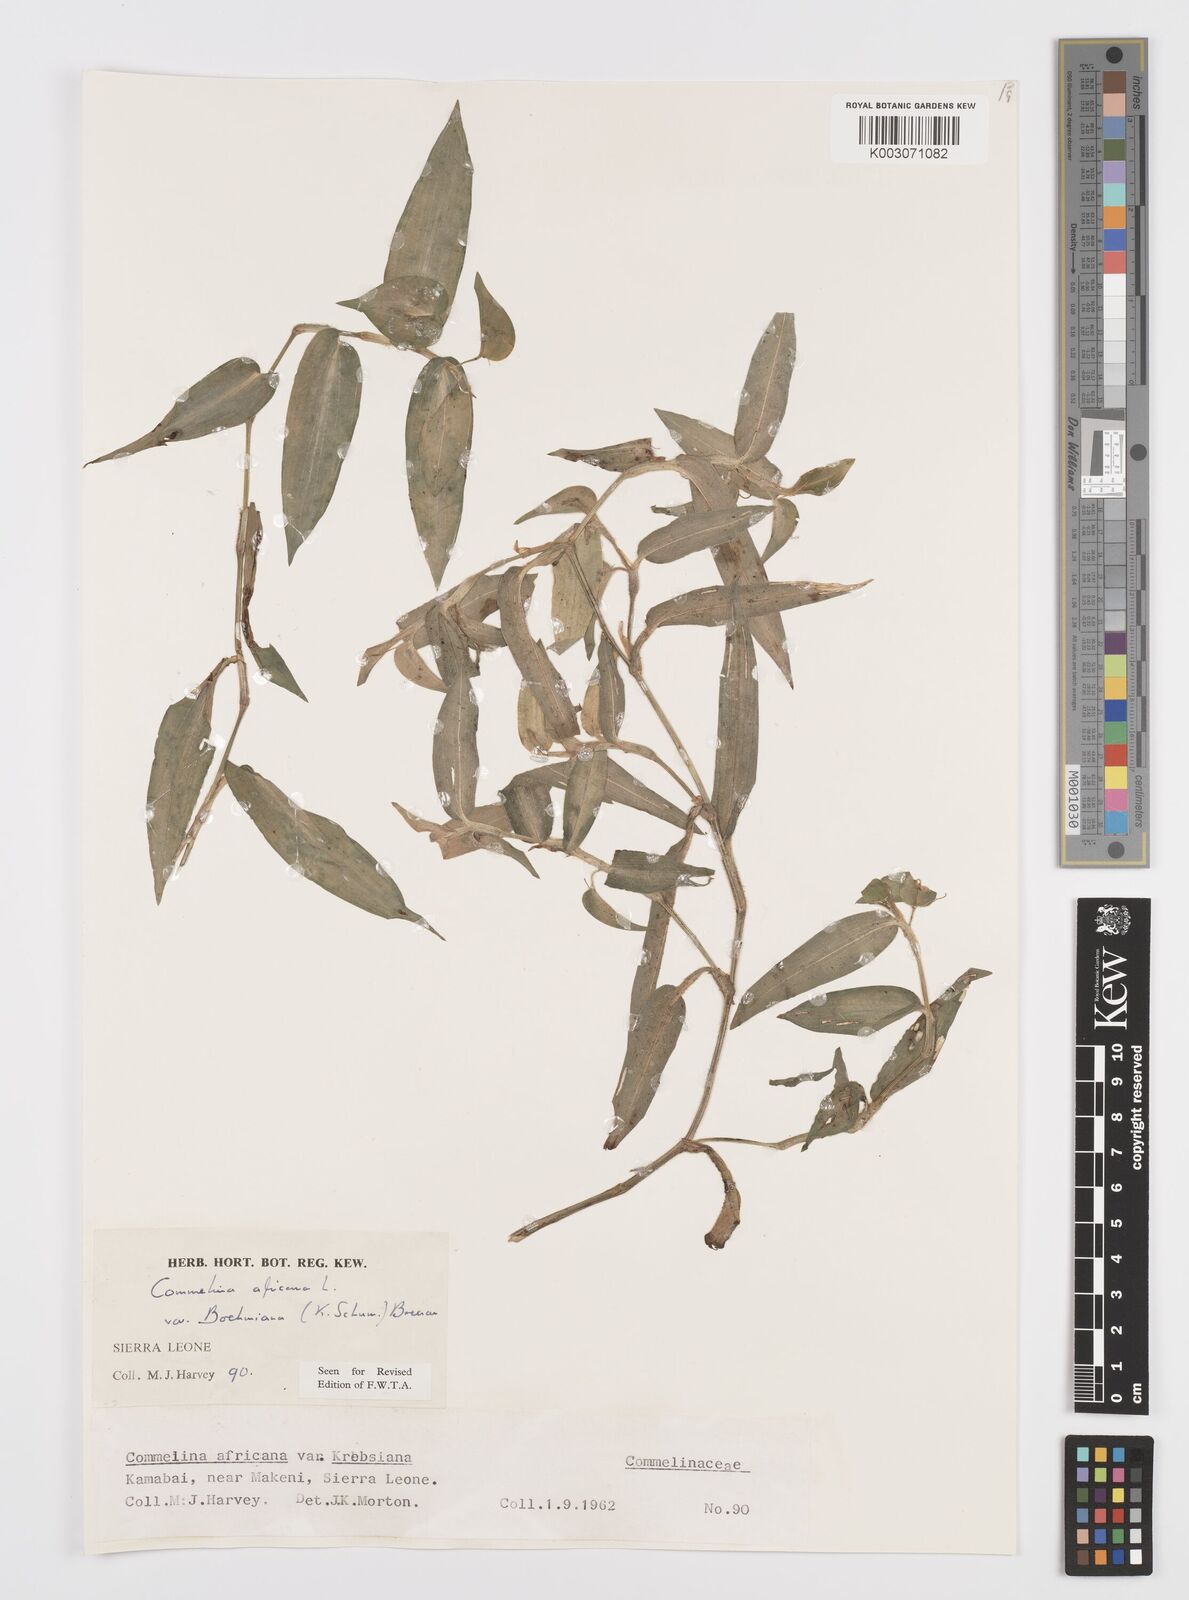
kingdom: Plantae
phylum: Tracheophyta
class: Liliopsida
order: Commelinales
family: Commelinaceae
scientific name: Commelinaceae
